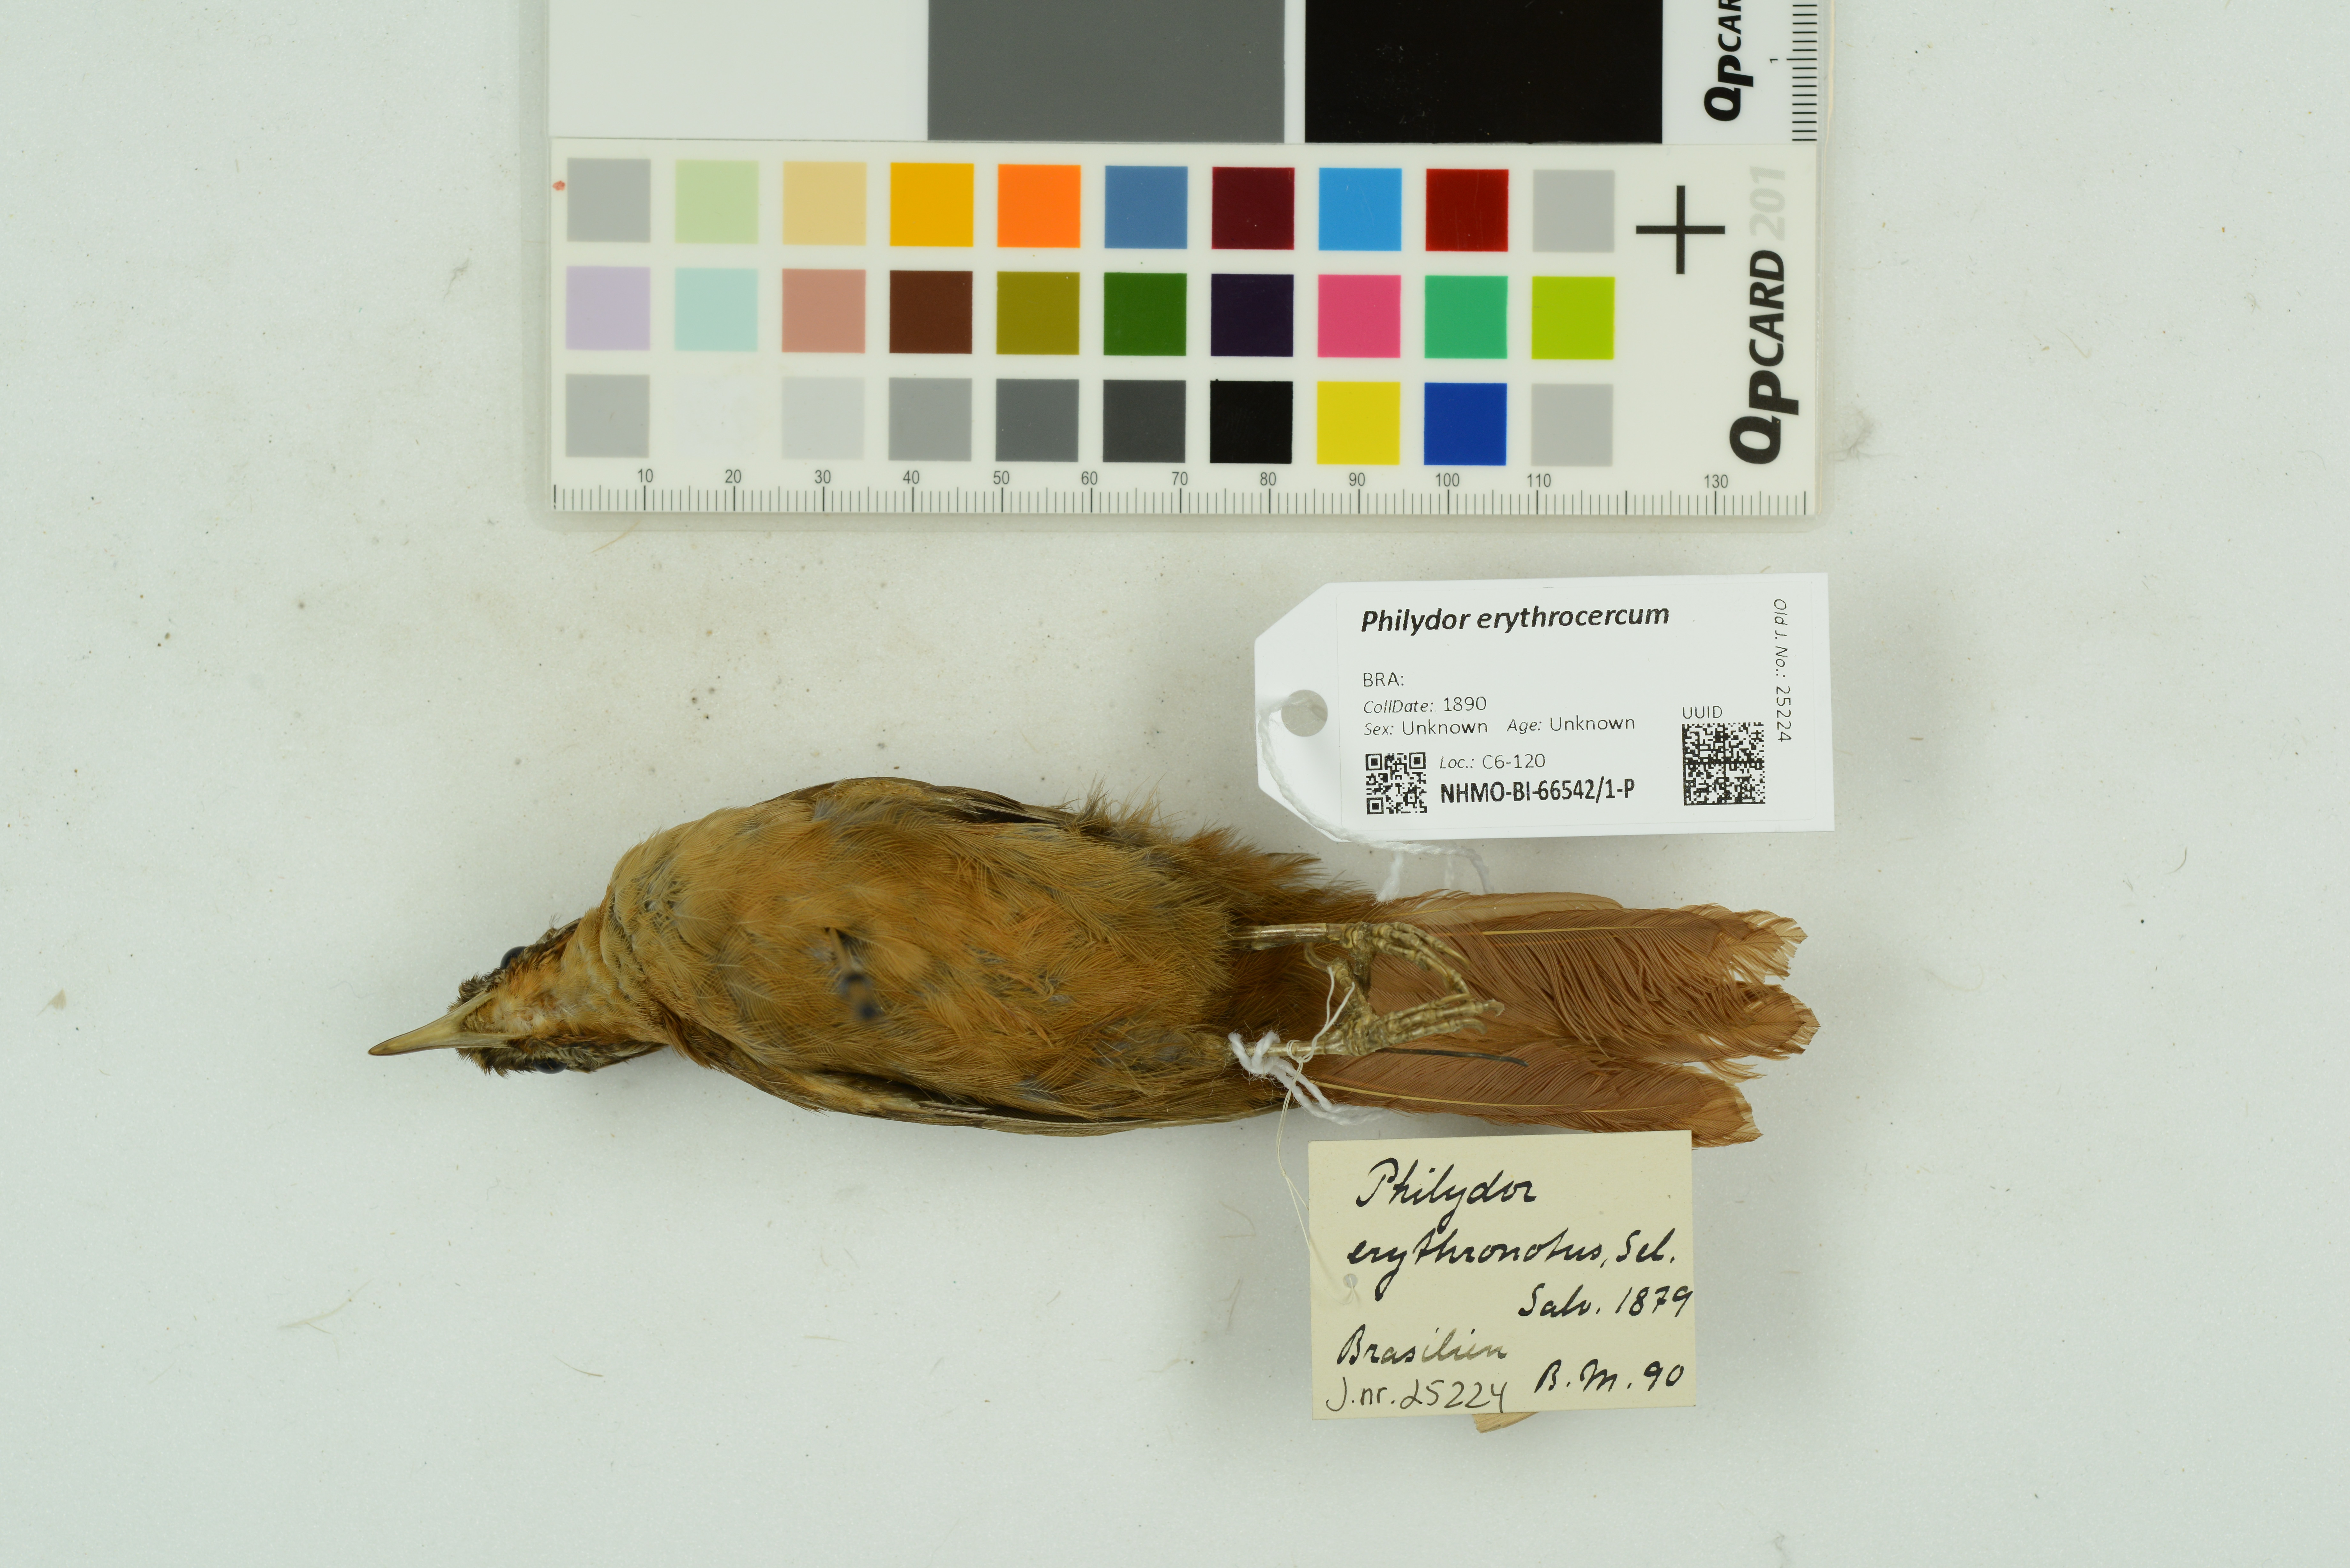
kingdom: Animalia
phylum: Chordata
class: Aves
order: Passeriformes
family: Furnariidae
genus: Philydor
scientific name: Philydor erythrocercum
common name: Rufous-rumped foliage-gleaner
